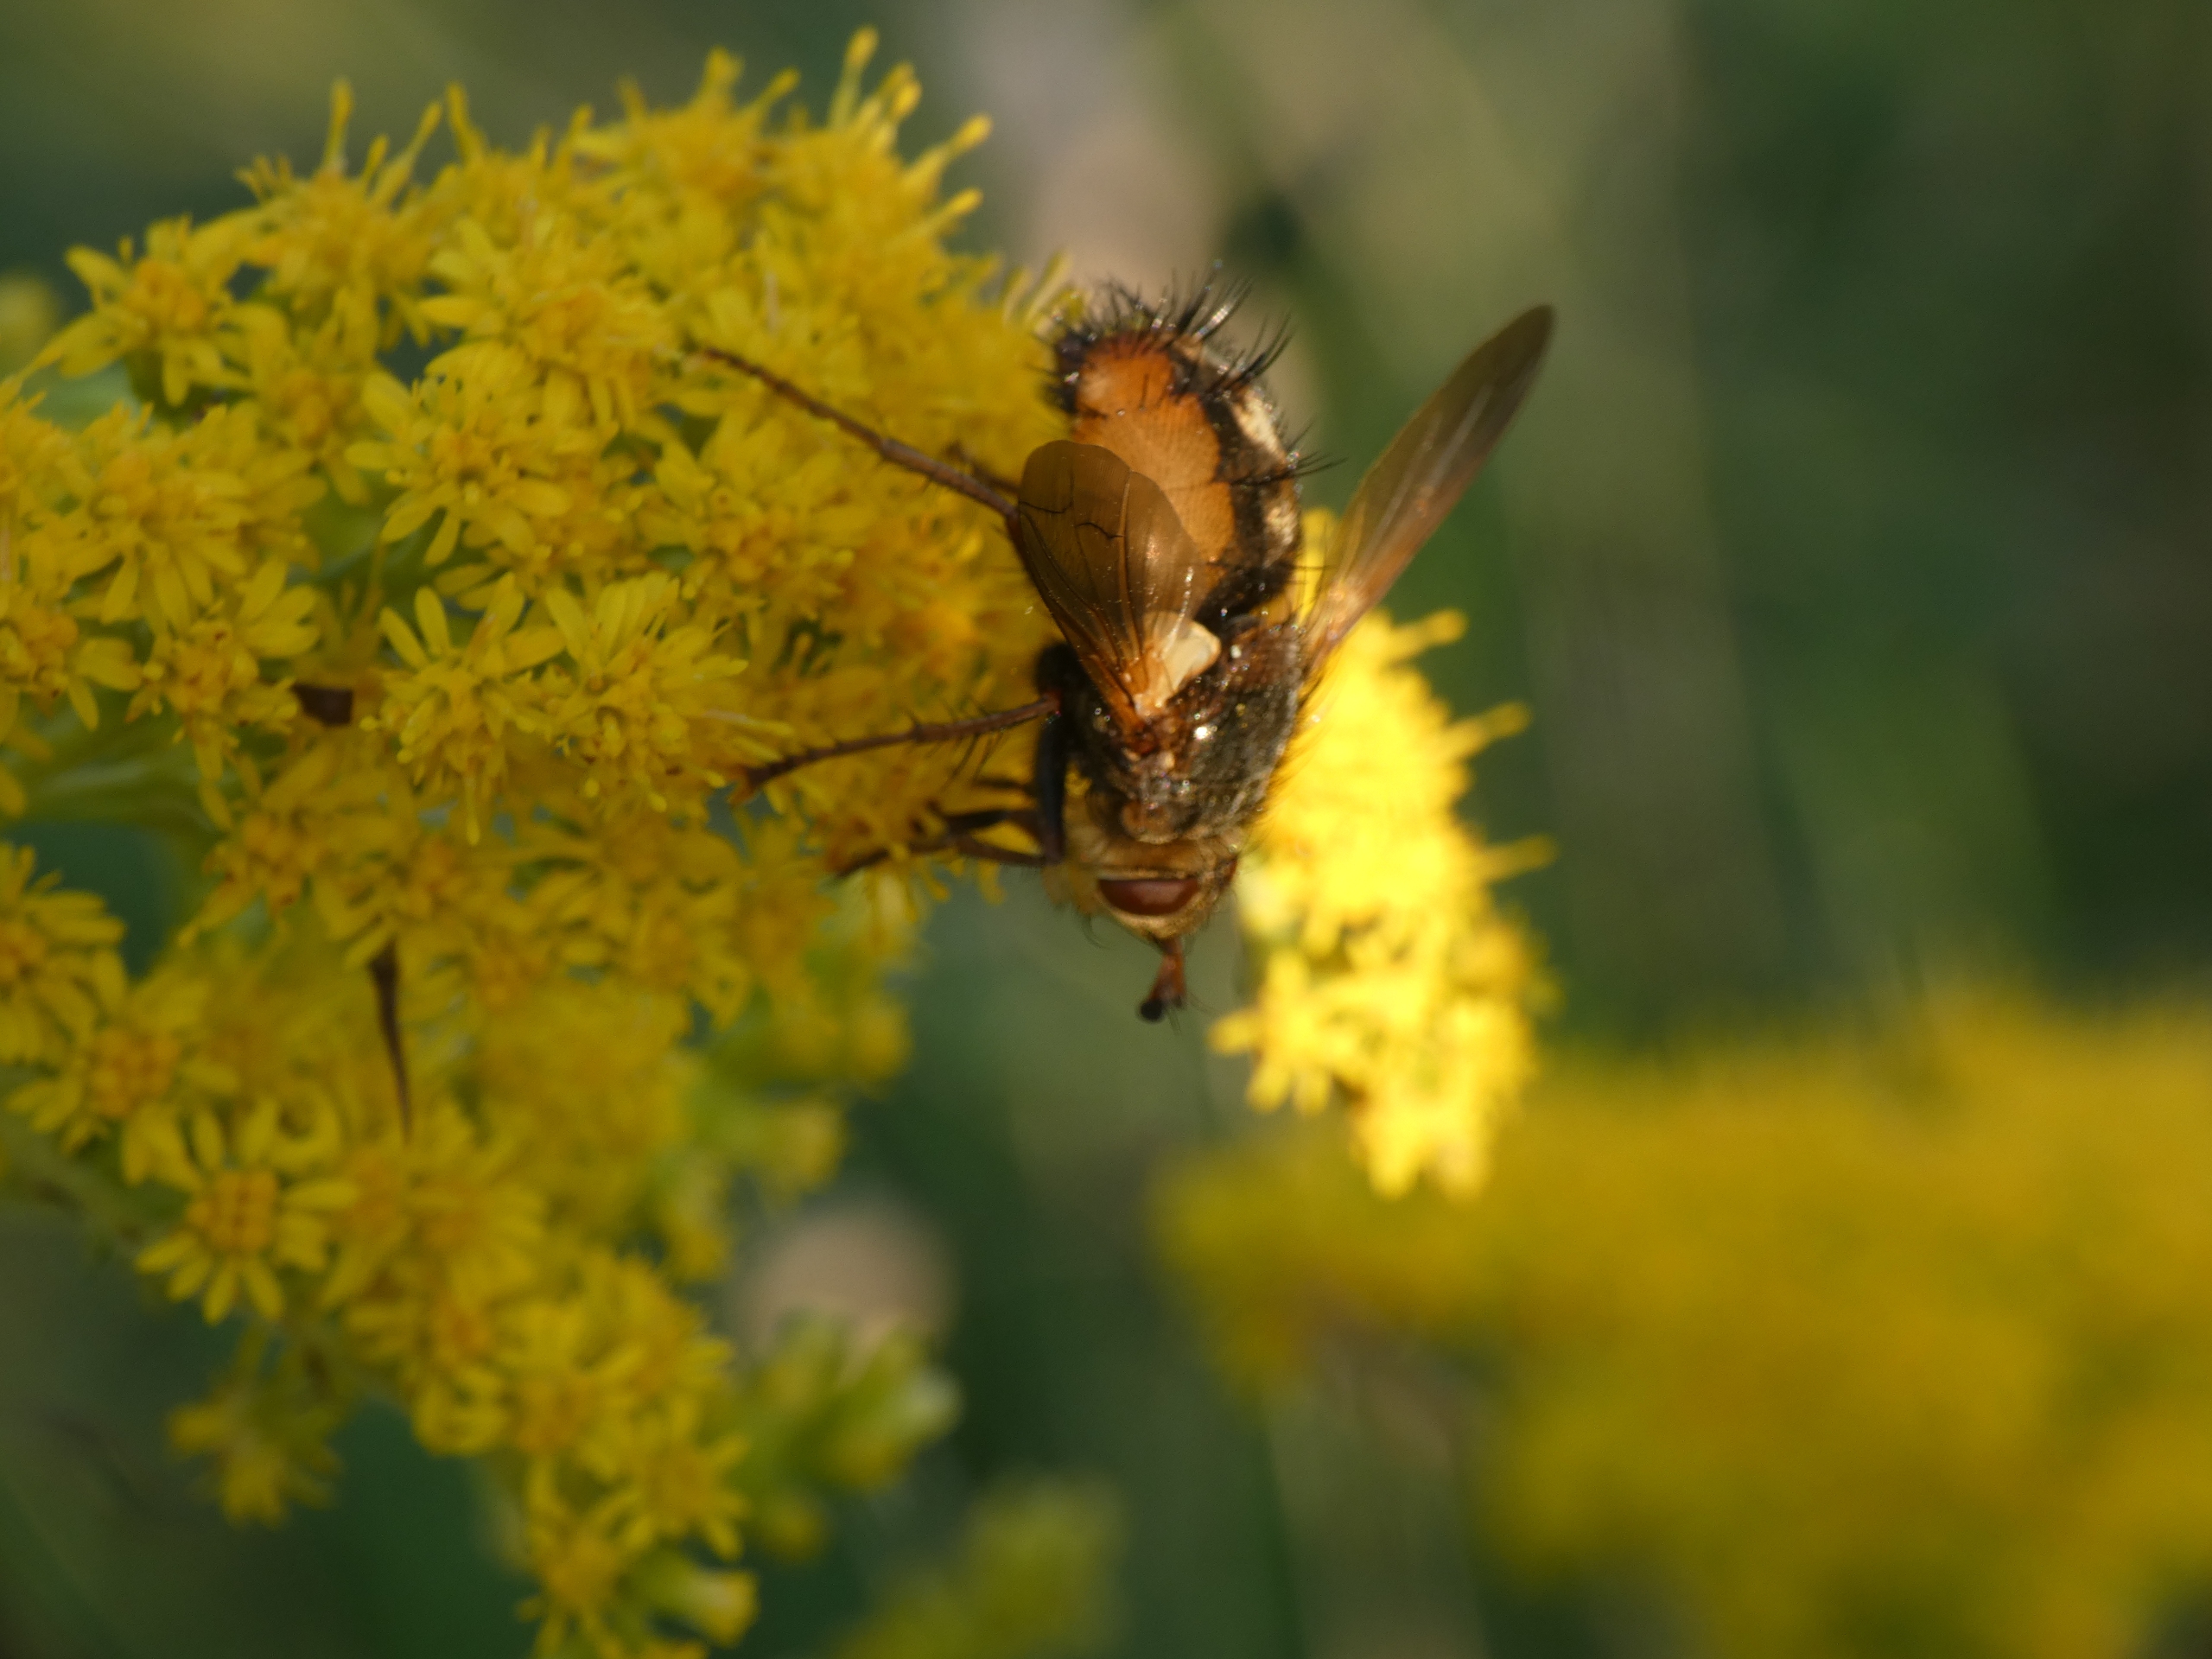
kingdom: Animalia
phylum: Arthropoda
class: Insecta
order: Diptera
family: Tachinidae
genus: Tachina
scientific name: Tachina fera
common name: Mellemfluen oskar
